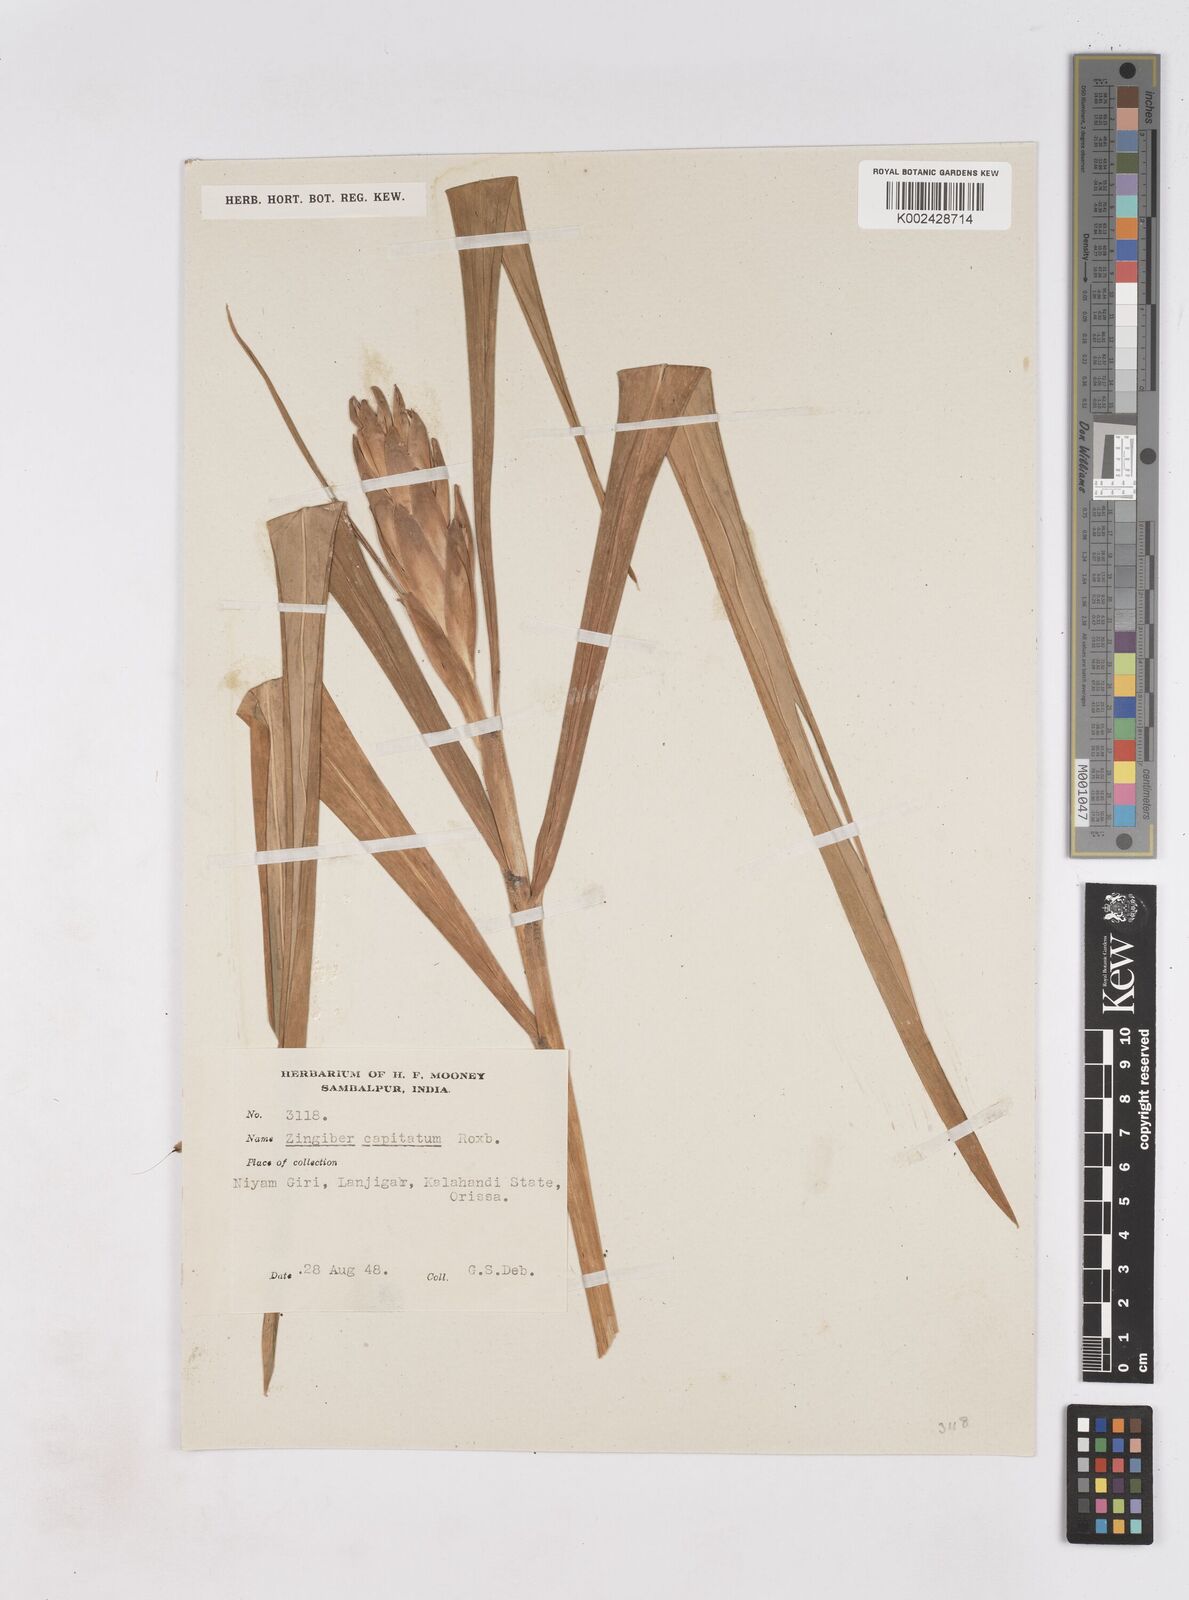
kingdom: Plantae
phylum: Tracheophyta
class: Liliopsida
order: Zingiberales
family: Zingiberaceae
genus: Zingiber
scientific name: Zingiber capitatum
